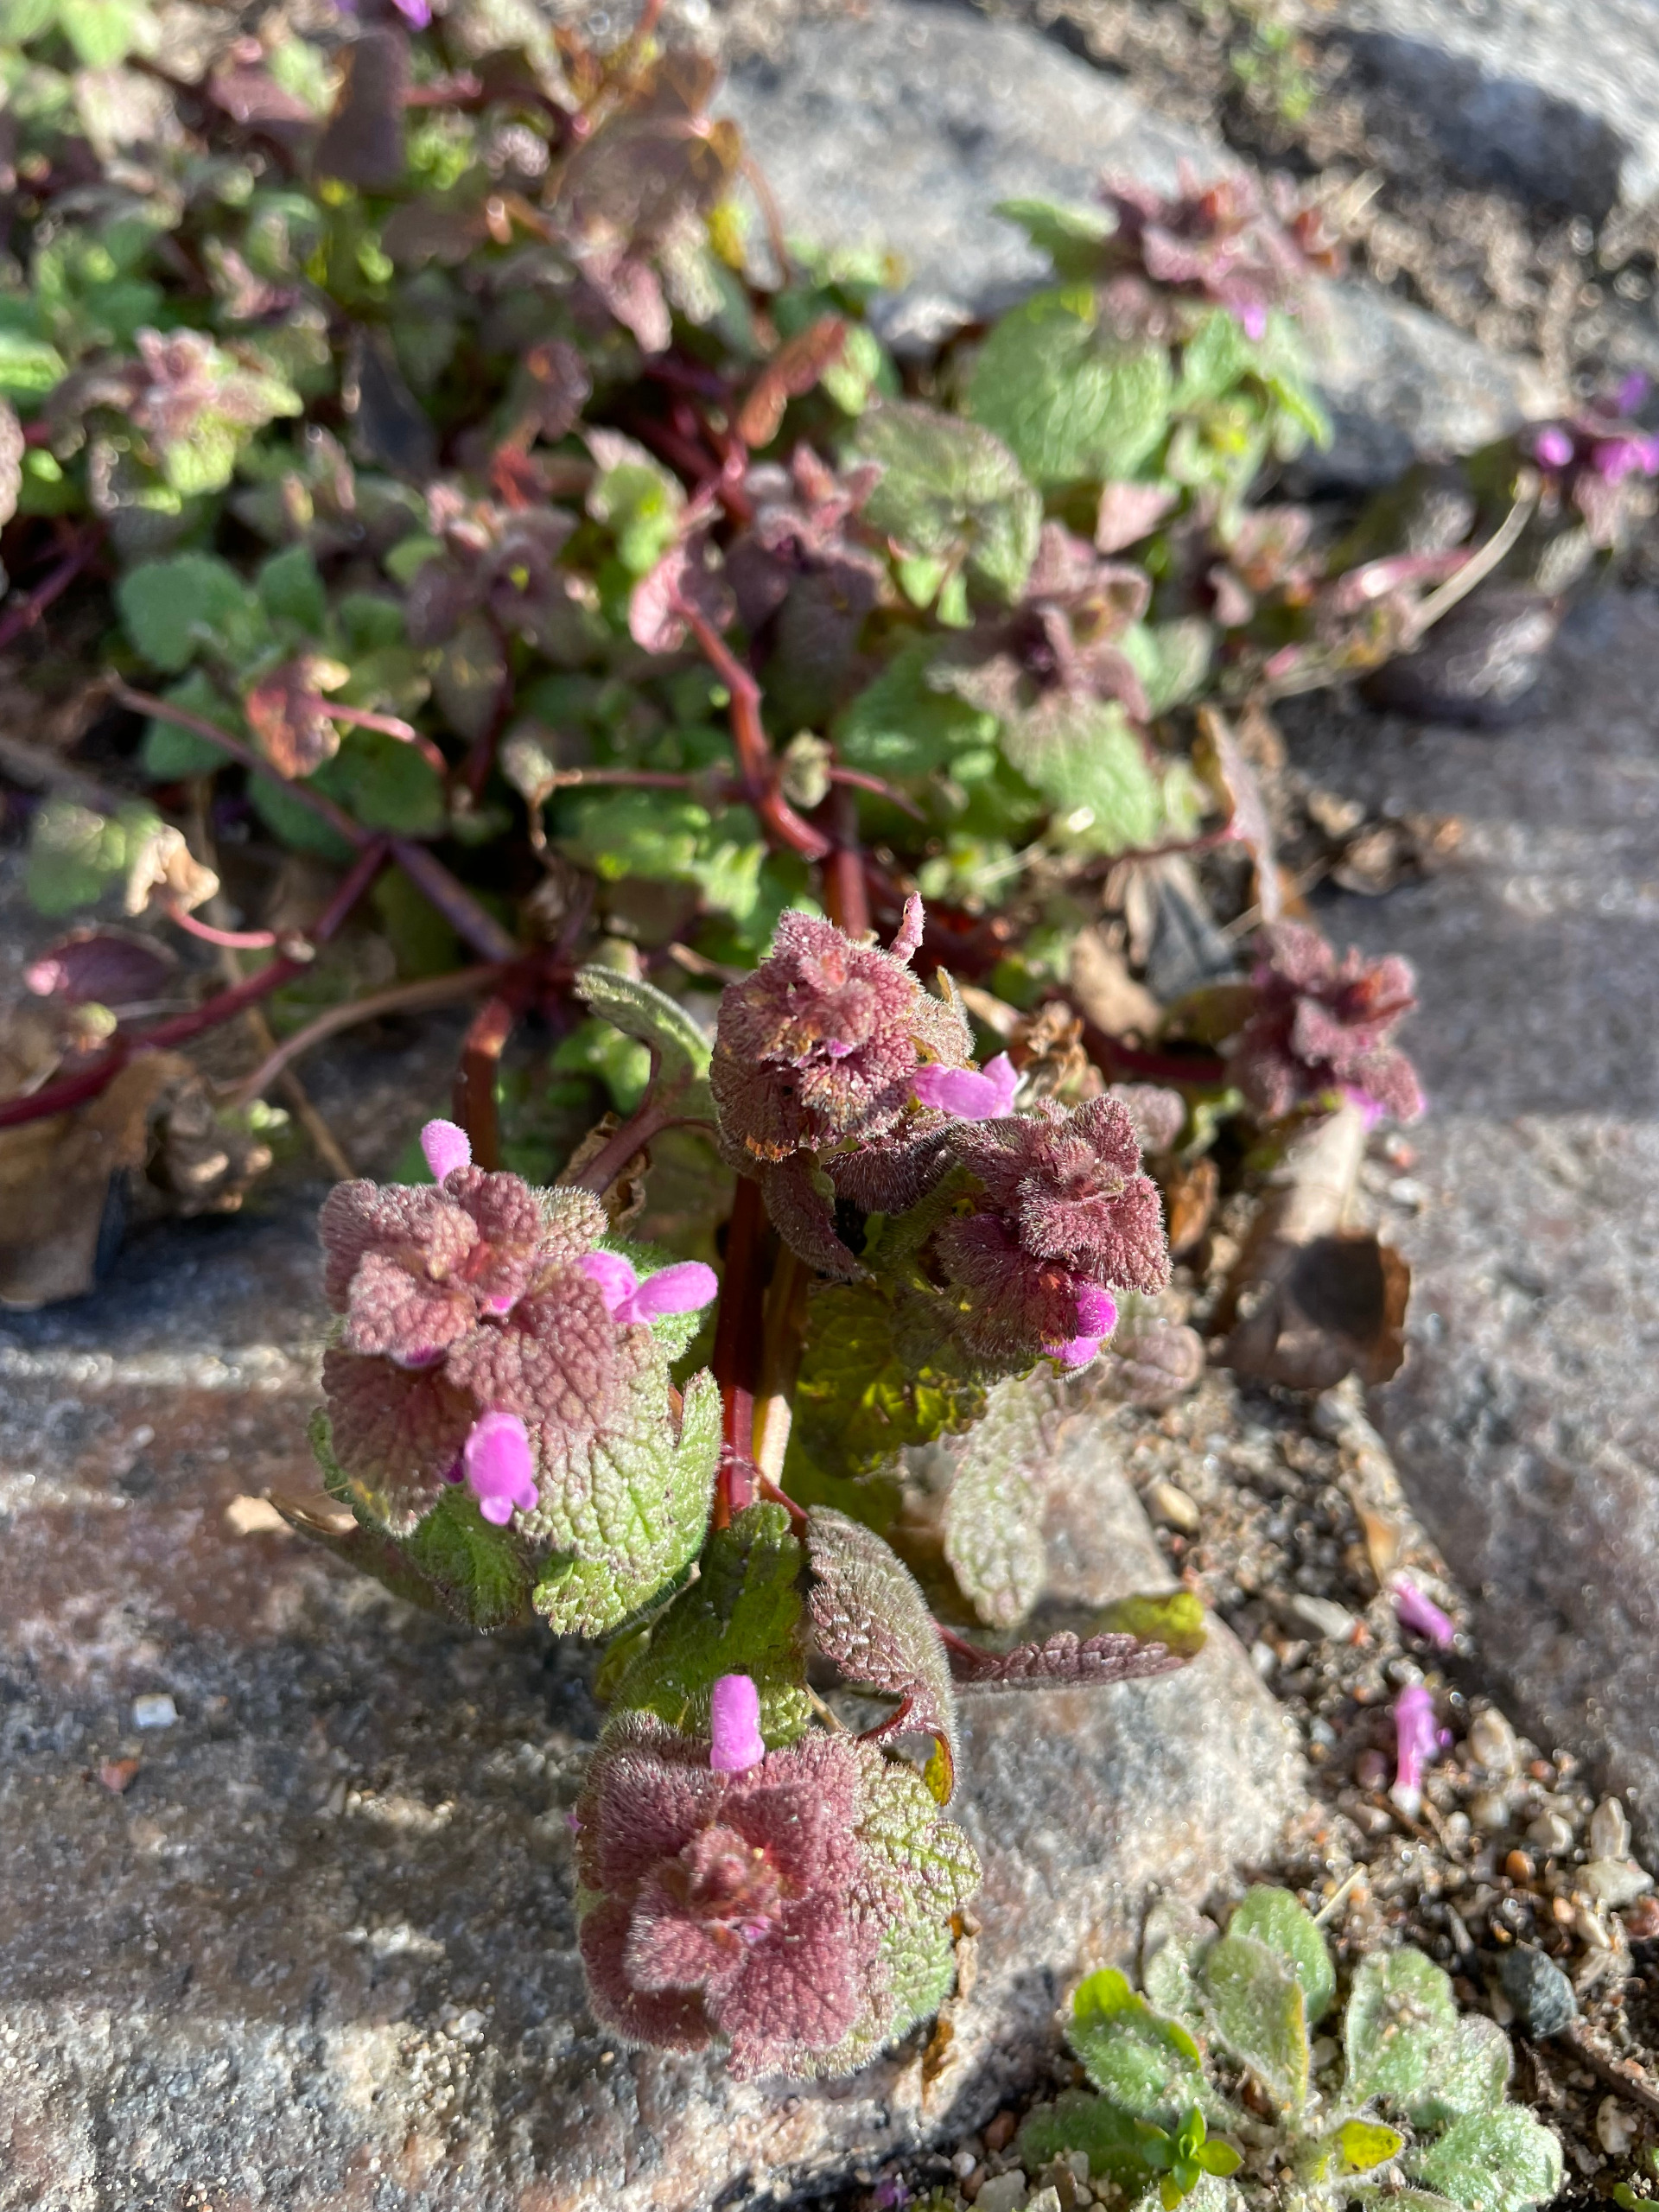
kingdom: Plantae
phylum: Tracheophyta
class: Magnoliopsida
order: Lamiales
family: Lamiaceae
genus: Lamium
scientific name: Lamium purpureum
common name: Rød tvetand
